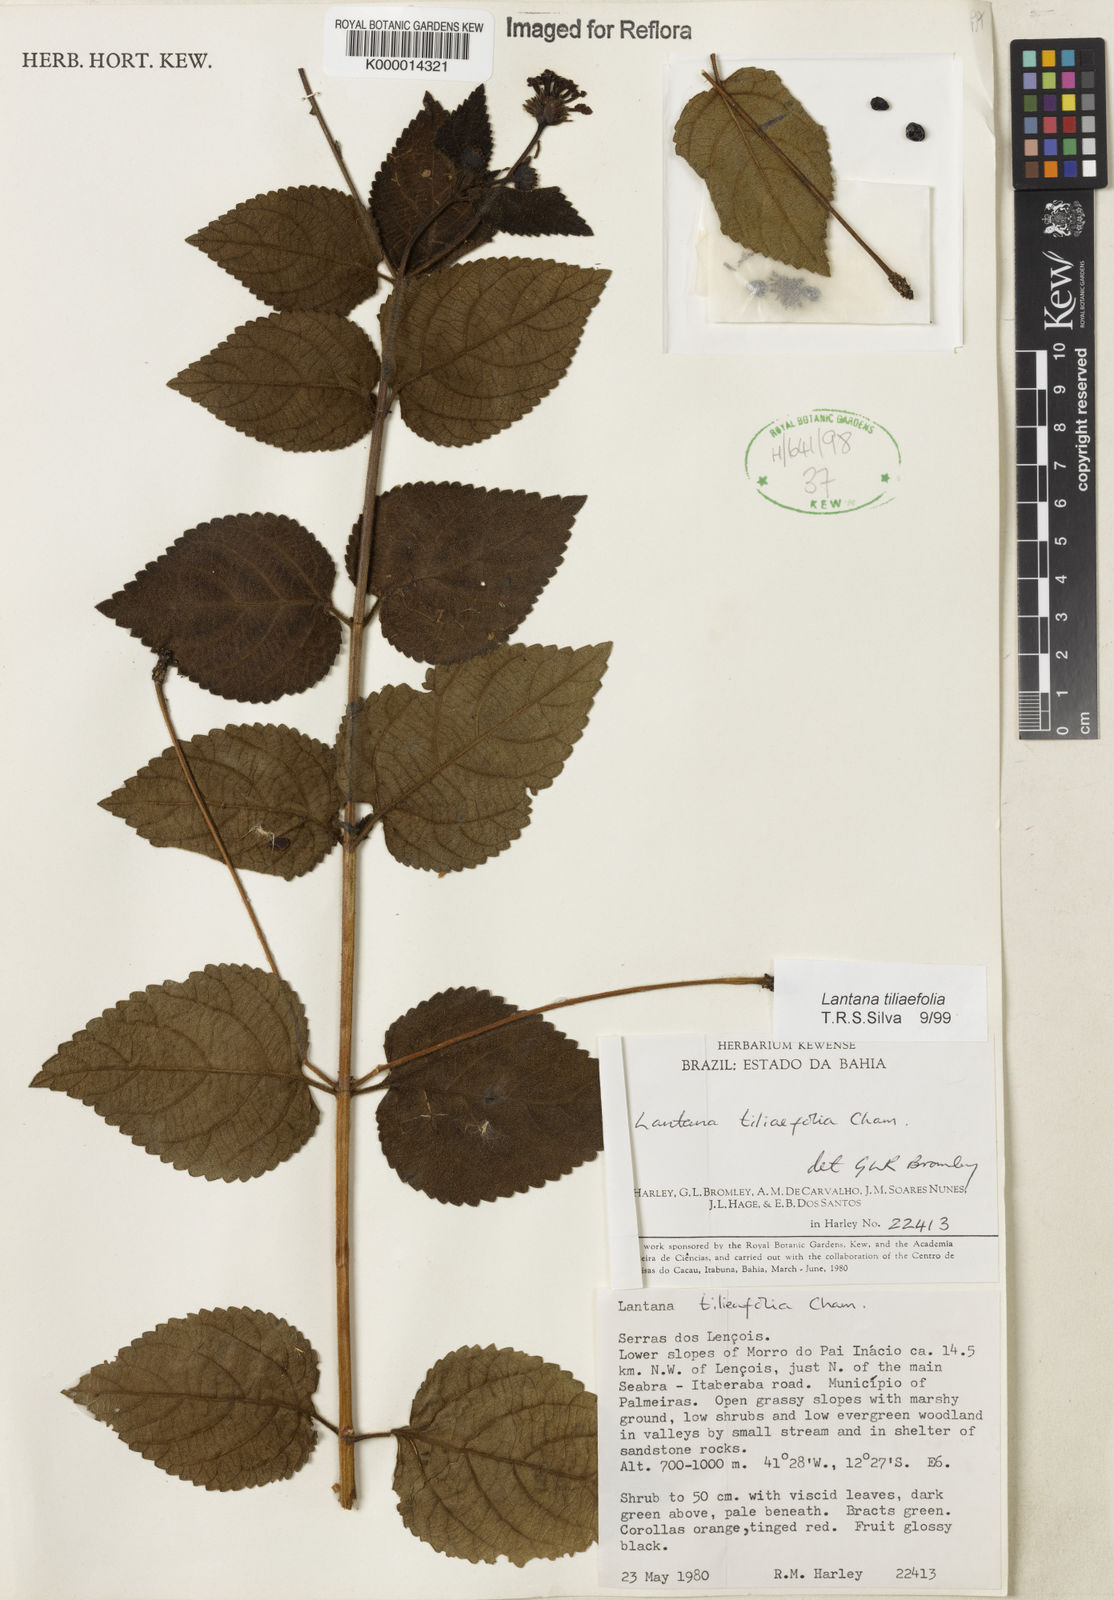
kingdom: Plantae
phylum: Tracheophyta
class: Magnoliopsida
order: Lamiales
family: Verbenaceae
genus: Lantana
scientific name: Lantana
